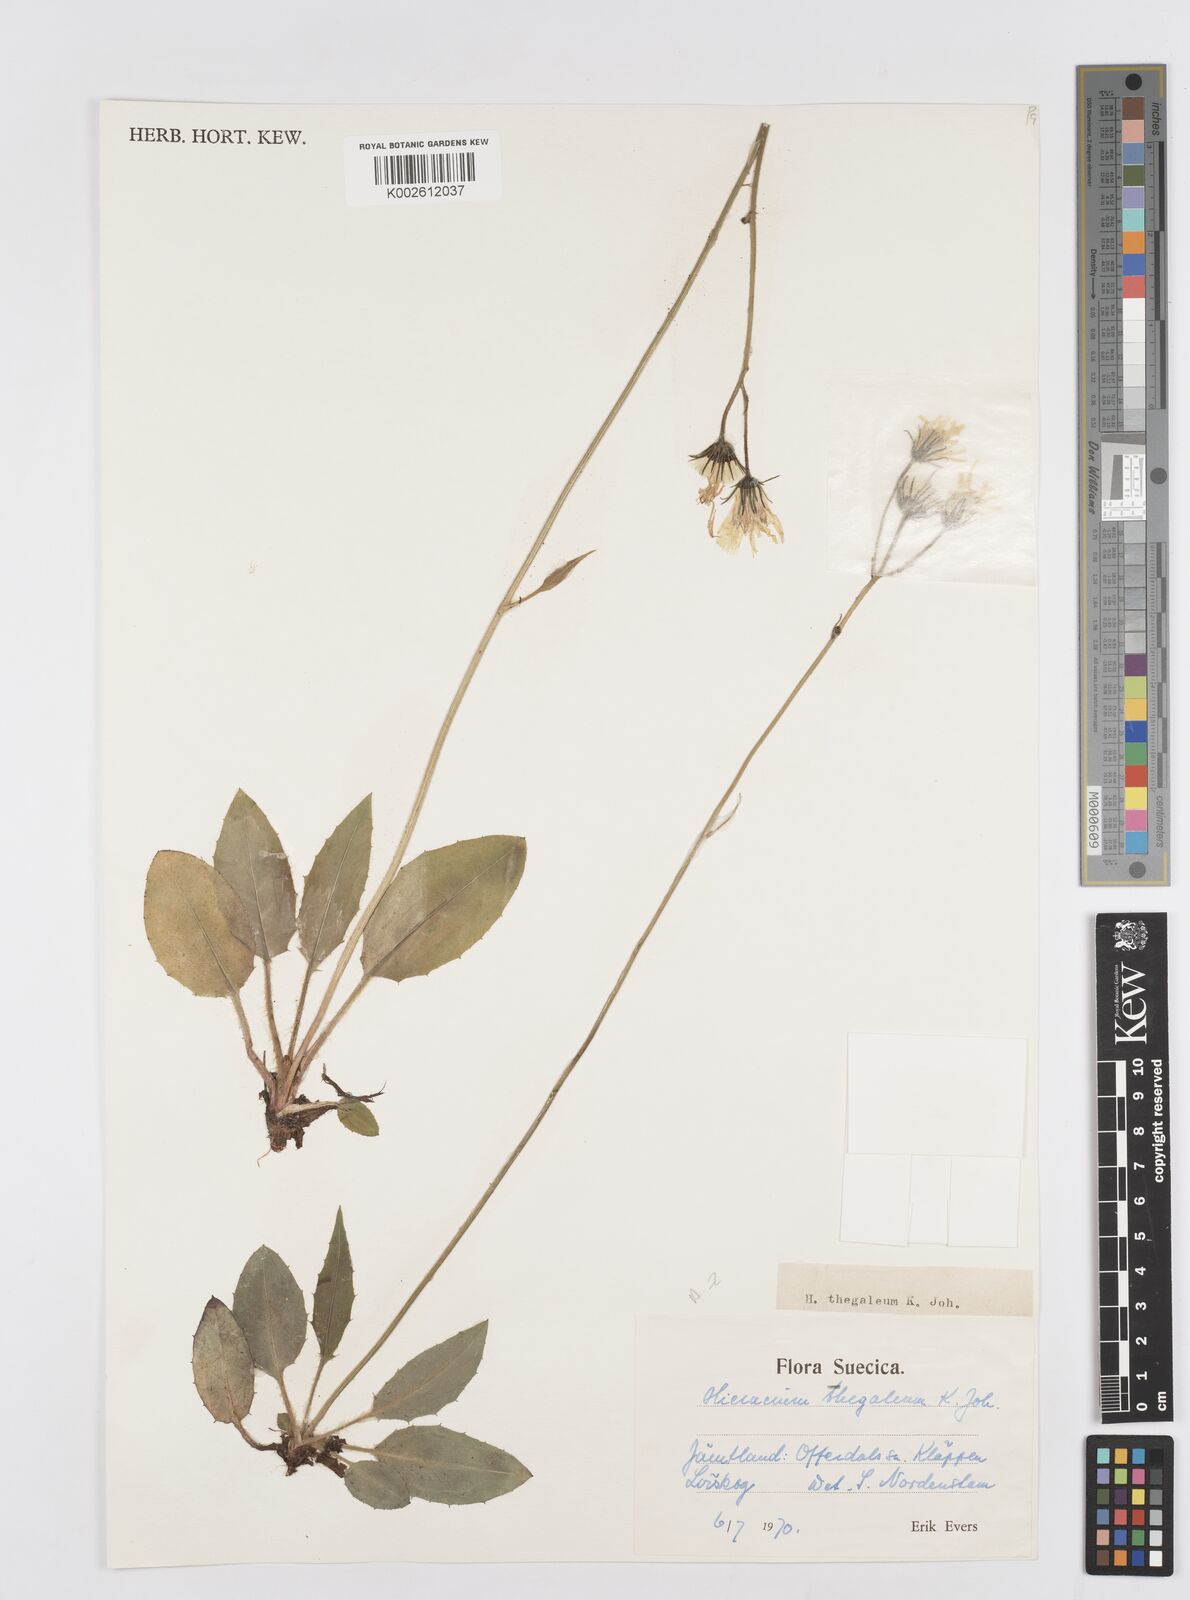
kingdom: Plantae
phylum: Tracheophyta
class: Magnoliopsida
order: Asterales
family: Asteraceae
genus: Hieracium
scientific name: Hieracium thegaleum
